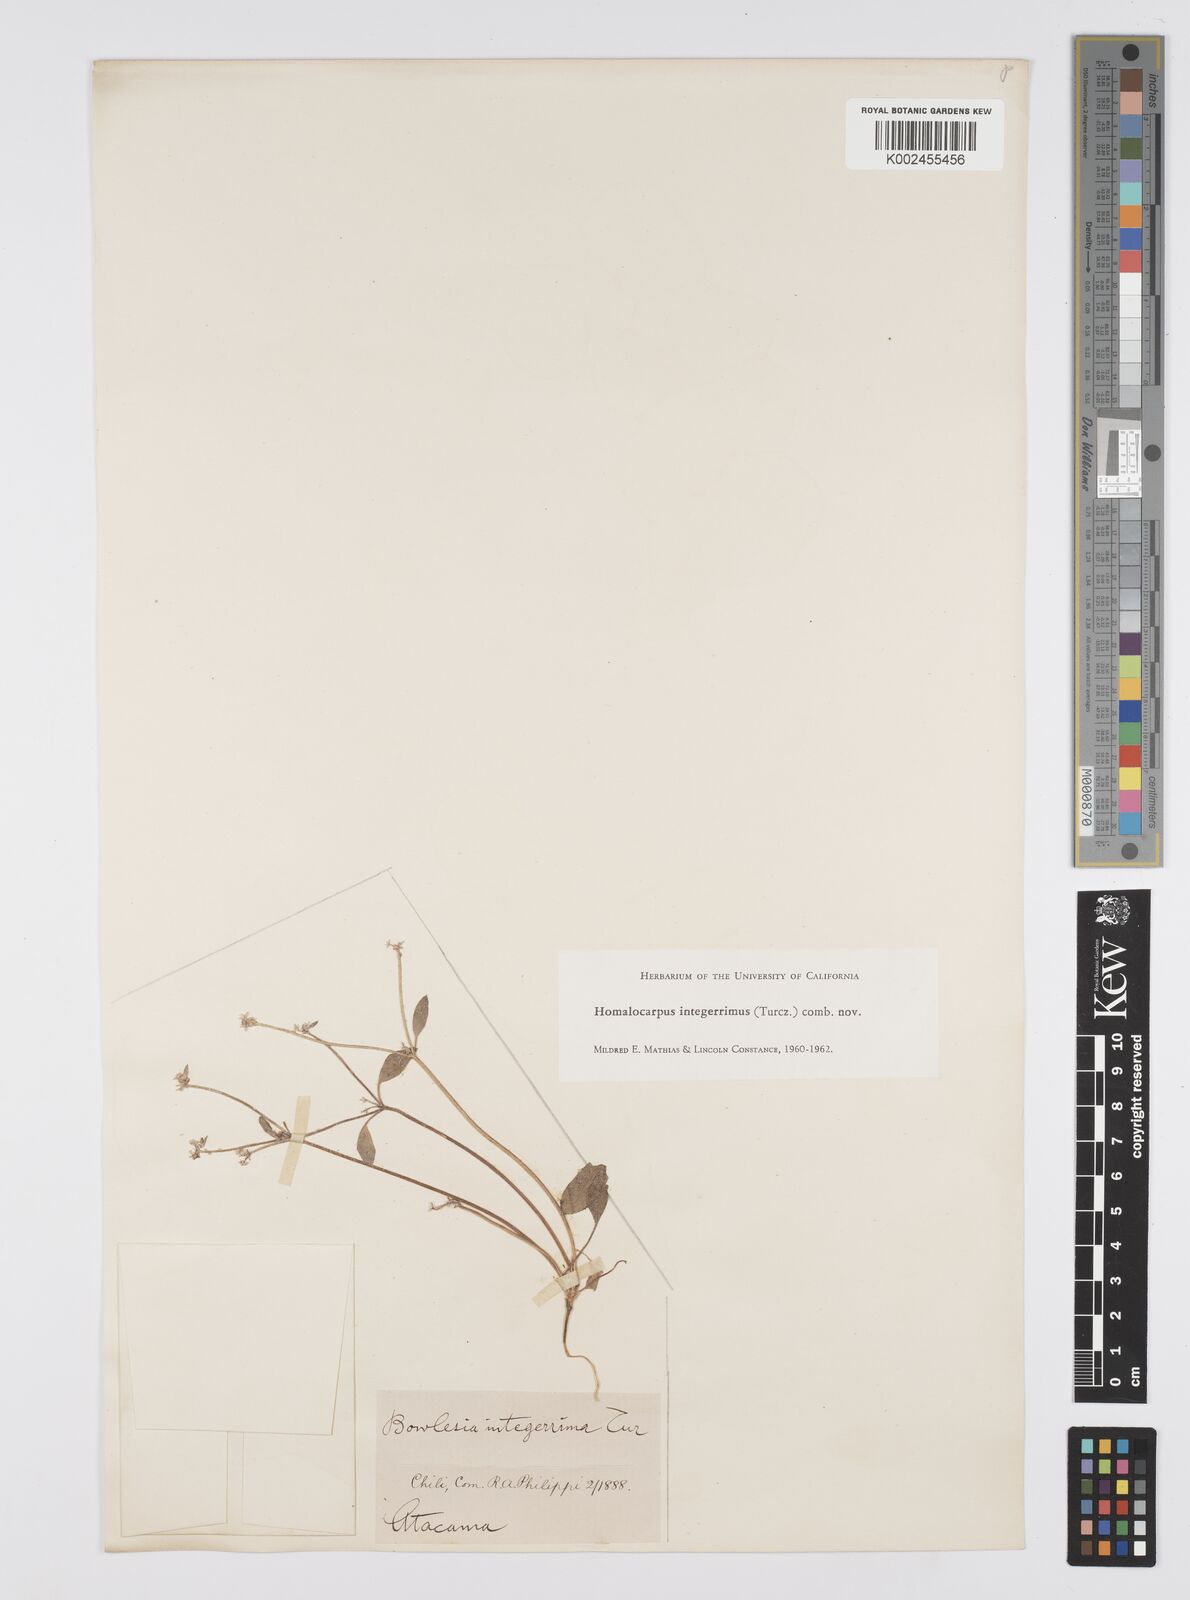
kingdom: Plantae
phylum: Tracheophyta
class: Magnoliopsida
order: Apiales
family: Apiaceae
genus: Homalocarpus
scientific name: Homalocarpus integerrimus
